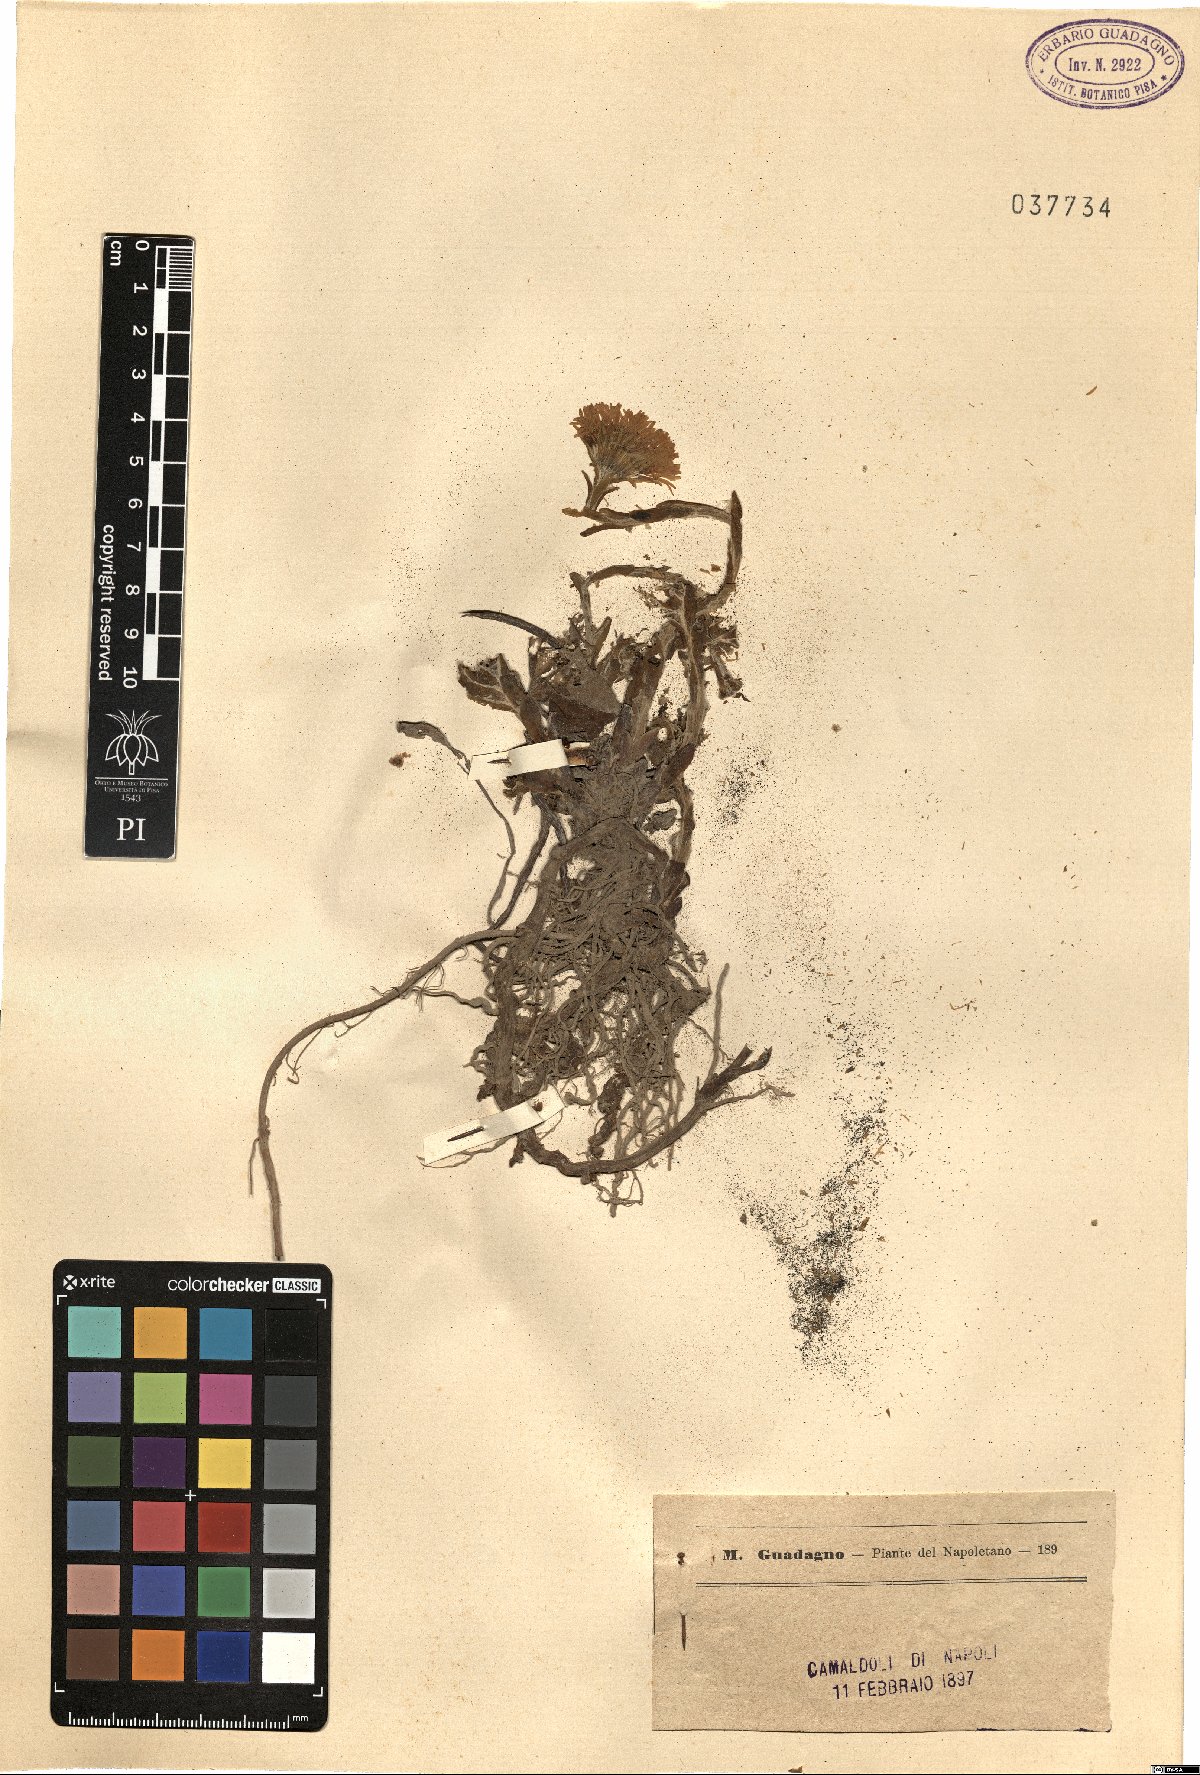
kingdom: Plantae
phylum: Tracheophyta
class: Magnoliopsida
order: Asterales
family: Asteraceae
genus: Tussilago
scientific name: Tussilago
